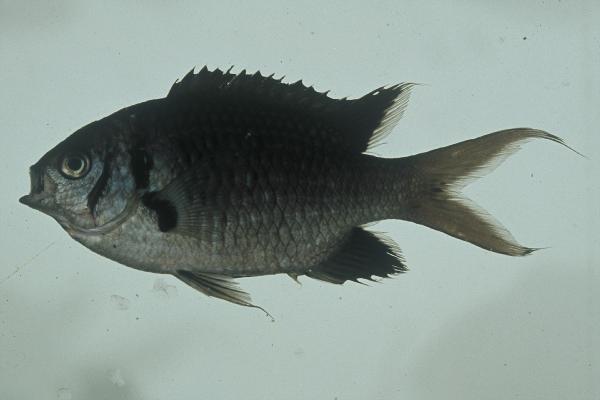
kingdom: Animalia
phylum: Chordata
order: Perciformes
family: Pomacentridae
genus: Chromis
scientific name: Chromis opercularis
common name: Doublebar chromis
